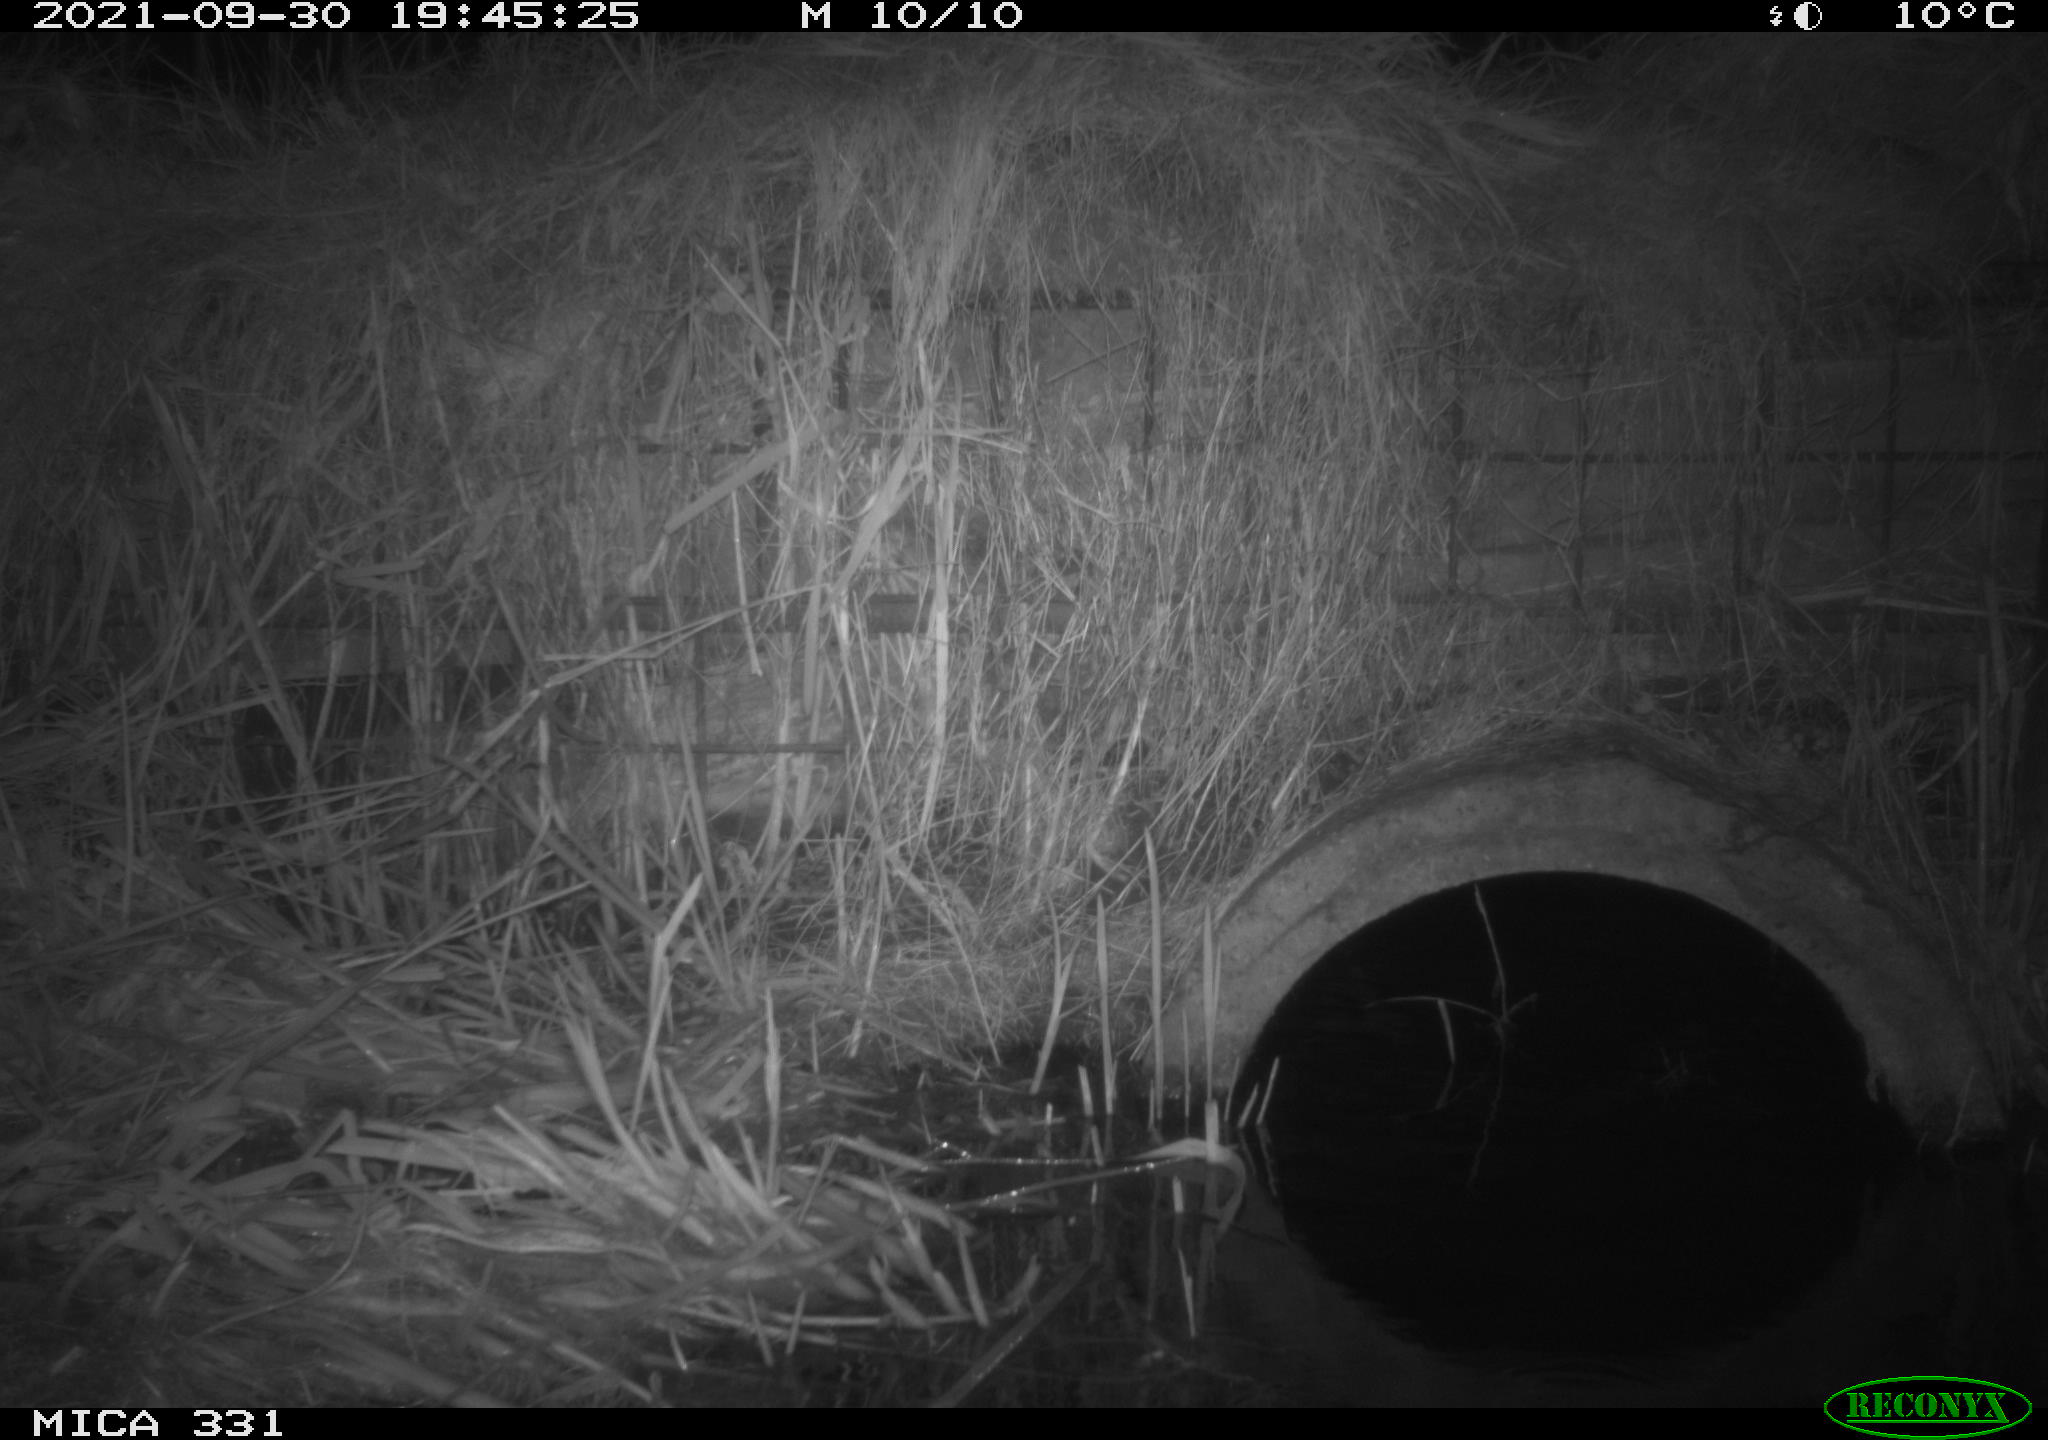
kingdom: Animalia
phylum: Chordata
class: Mammalia
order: Rodentia
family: Muridae
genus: Rattus
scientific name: Rattus norvegicus
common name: Brown rat
